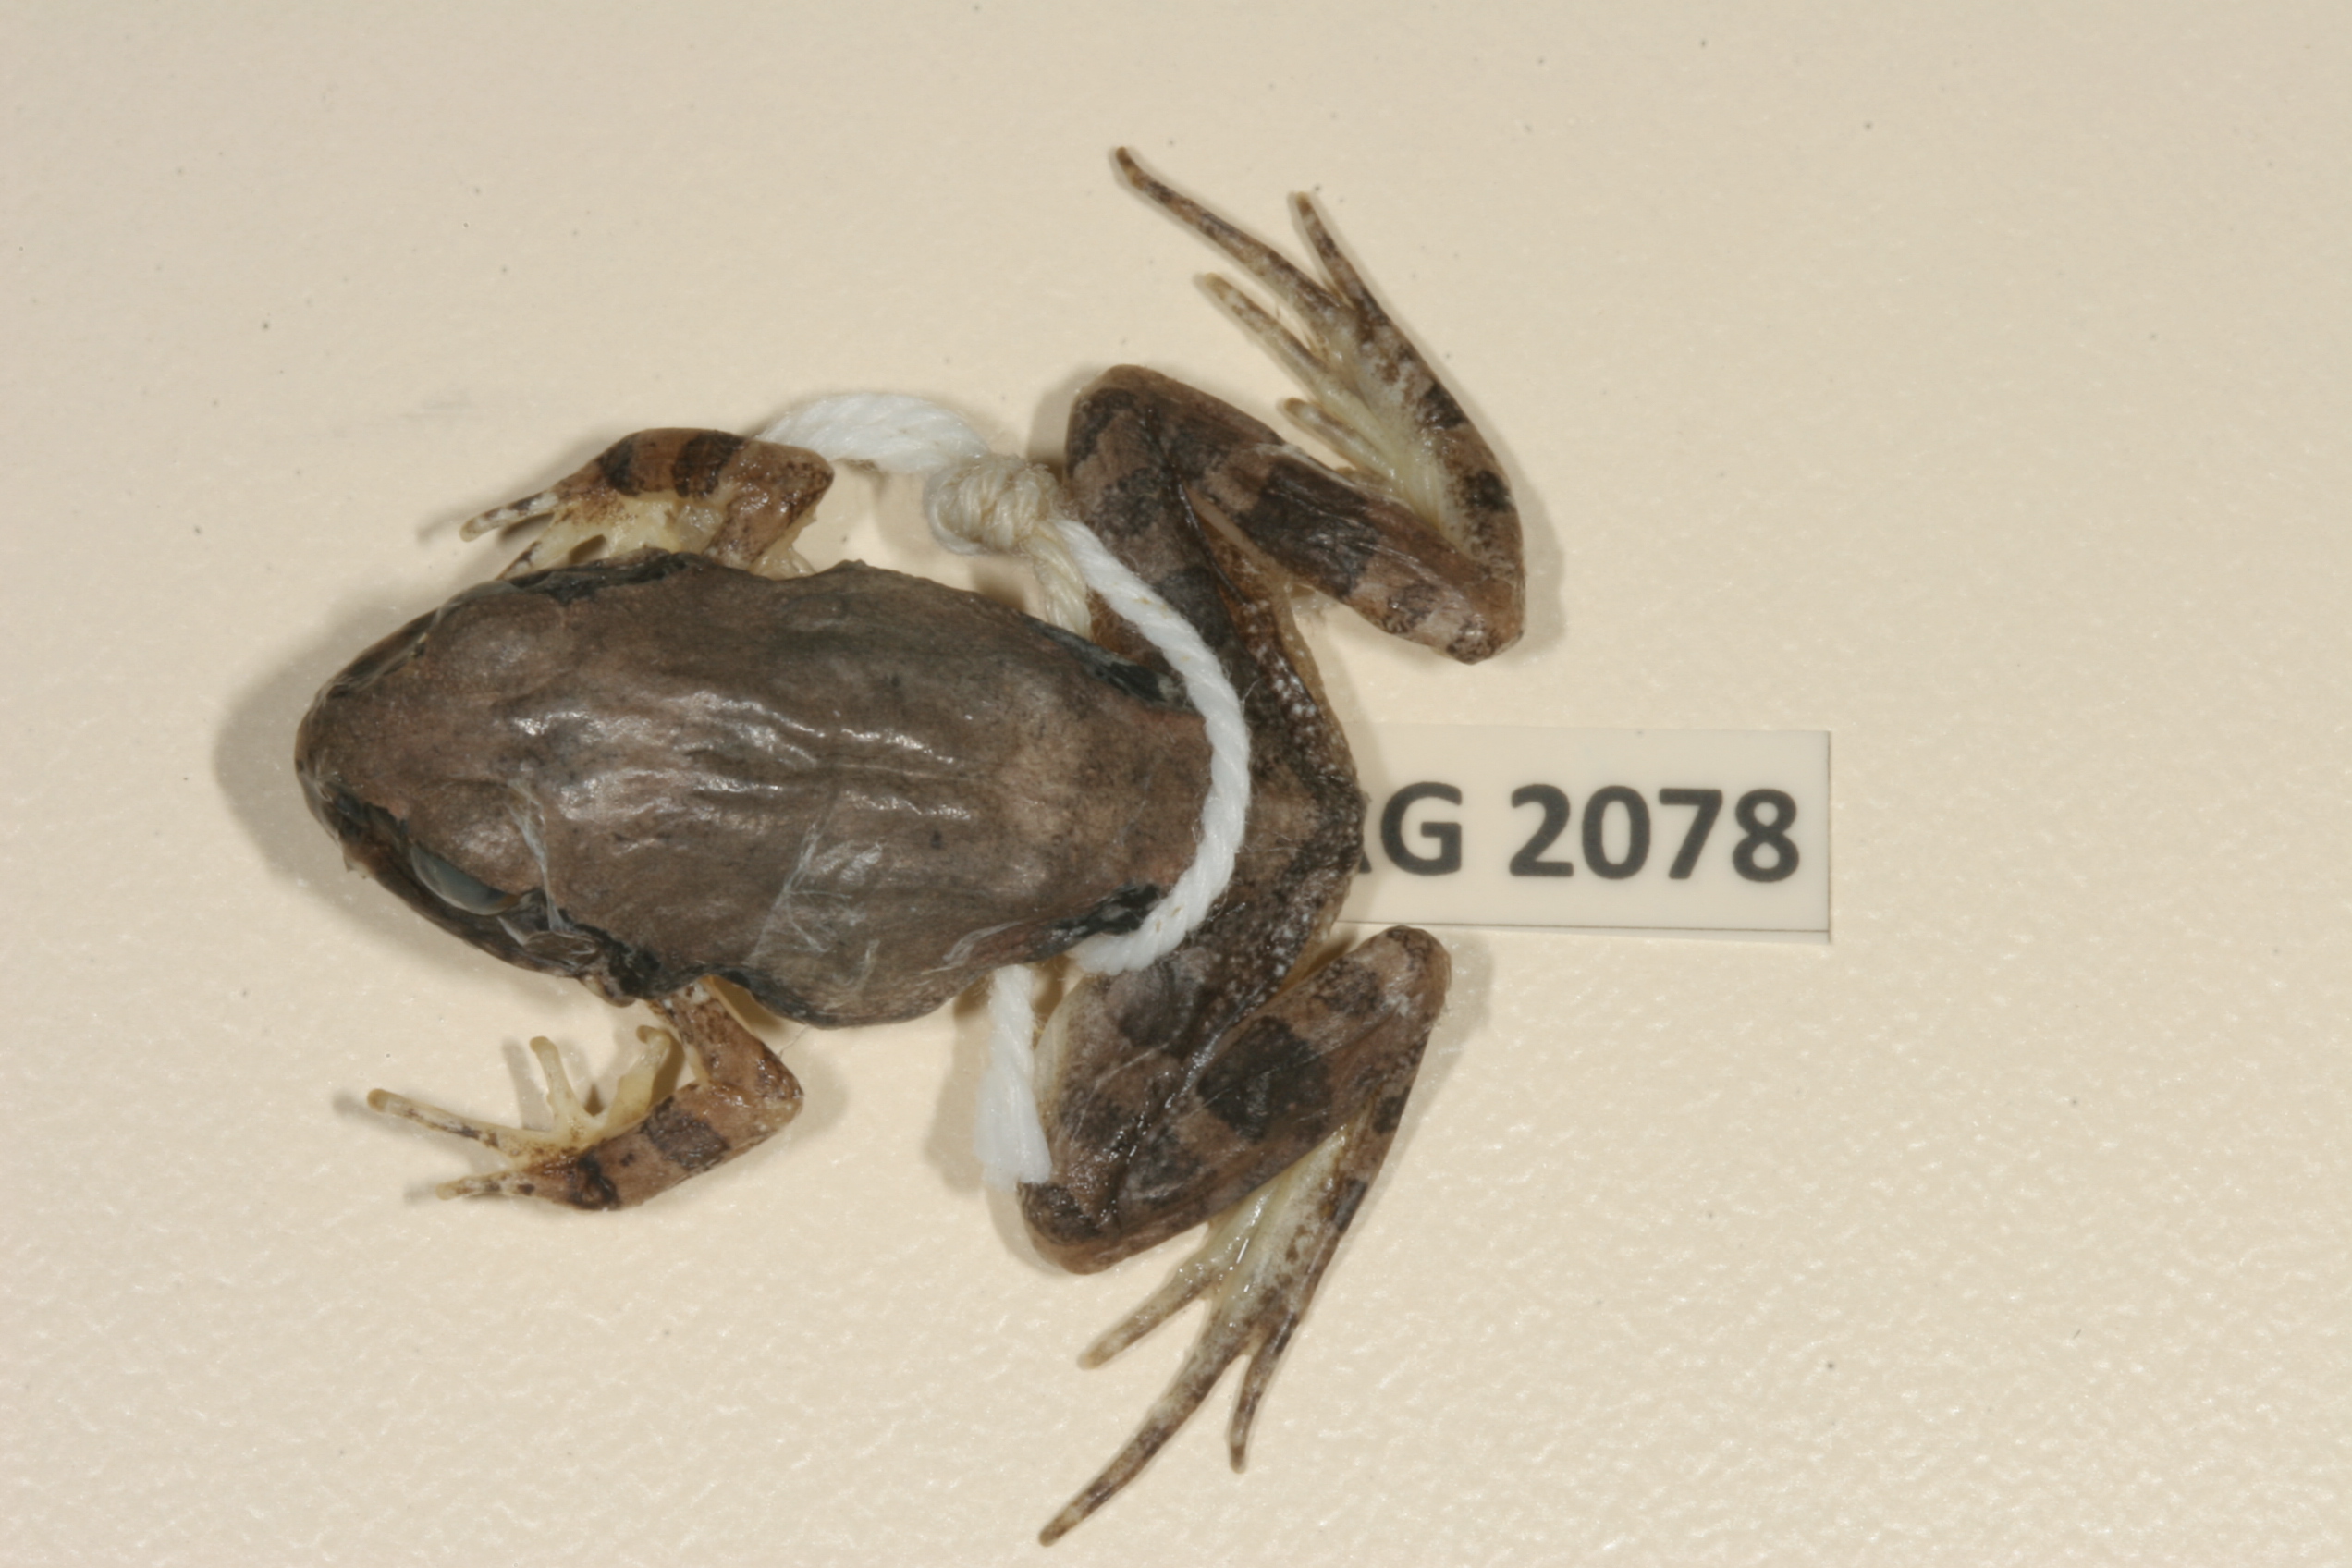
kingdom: Animalia
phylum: Chordata
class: Amphibia
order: Anura
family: Pyxicephalidae
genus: Tomopterna
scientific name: Tomopterna natalensis
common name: Natal sand frog
